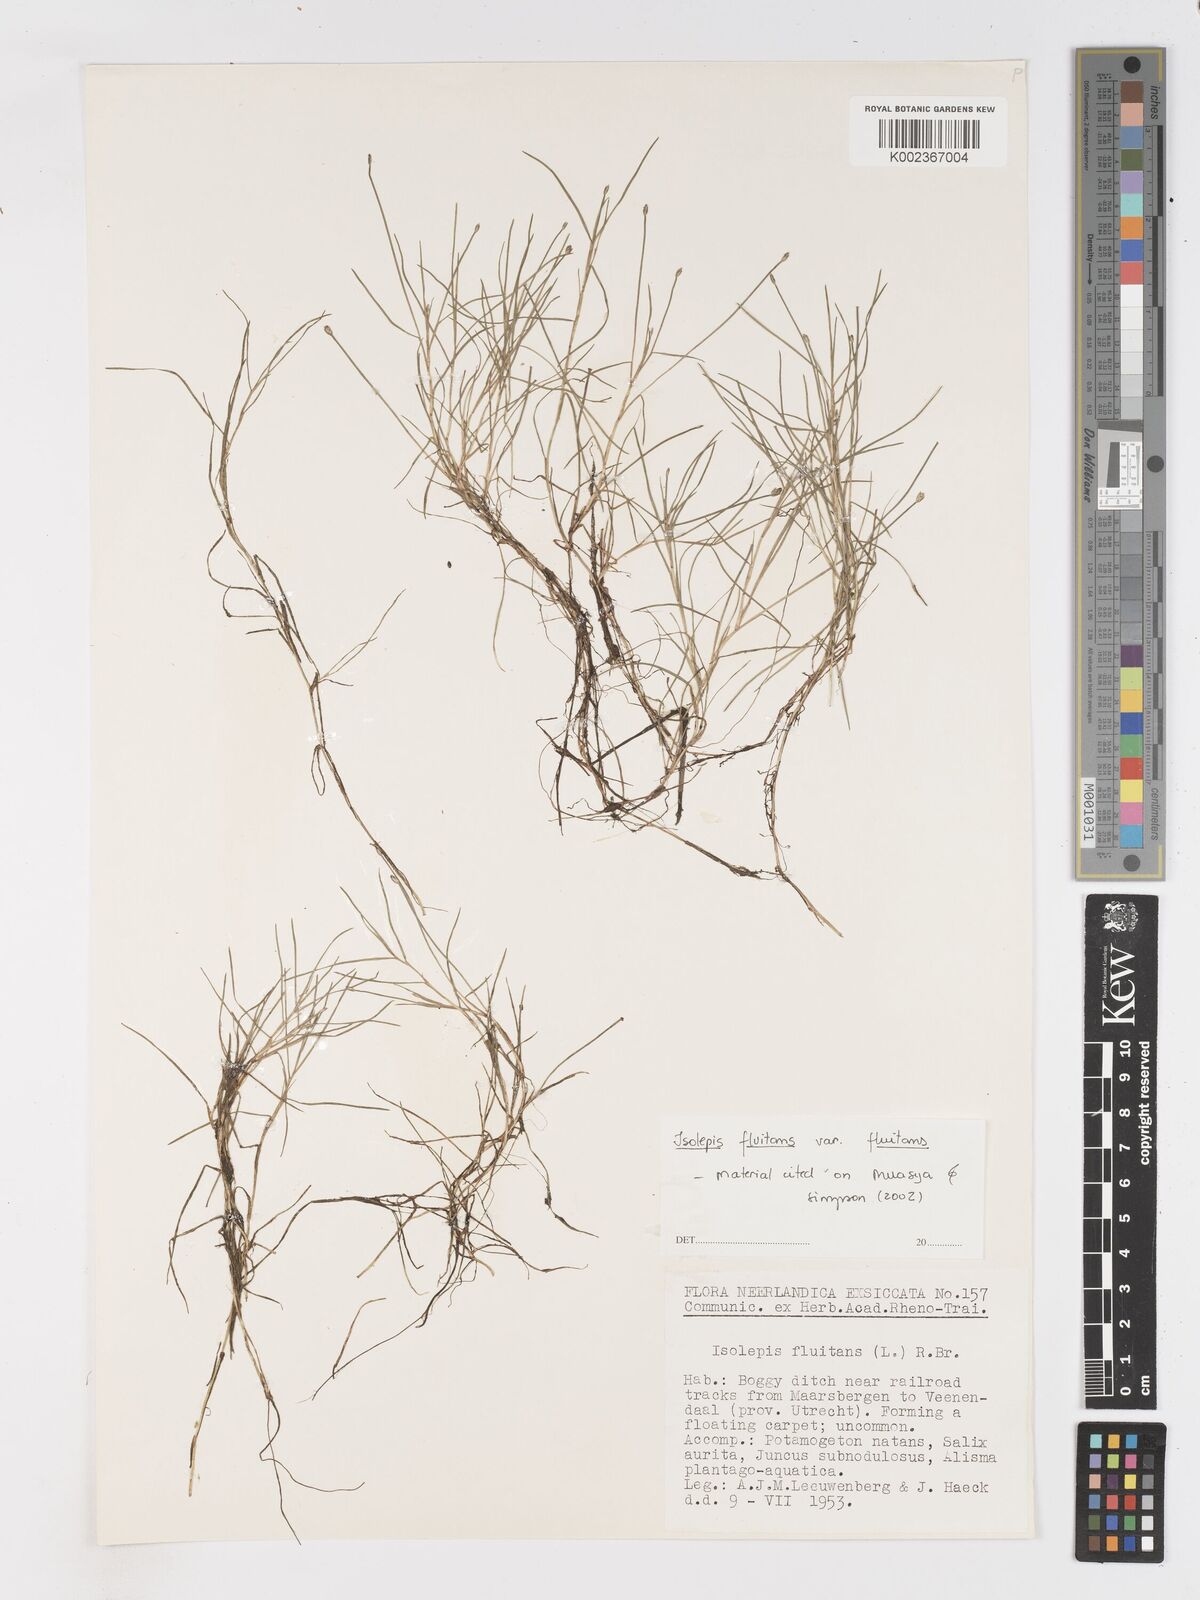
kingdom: Plantae
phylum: Tracheophyta
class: Liliopsida
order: Poales
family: Cyperaceae
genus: Isolepis
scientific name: Isolepis fluitans
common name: Floating club-rush
